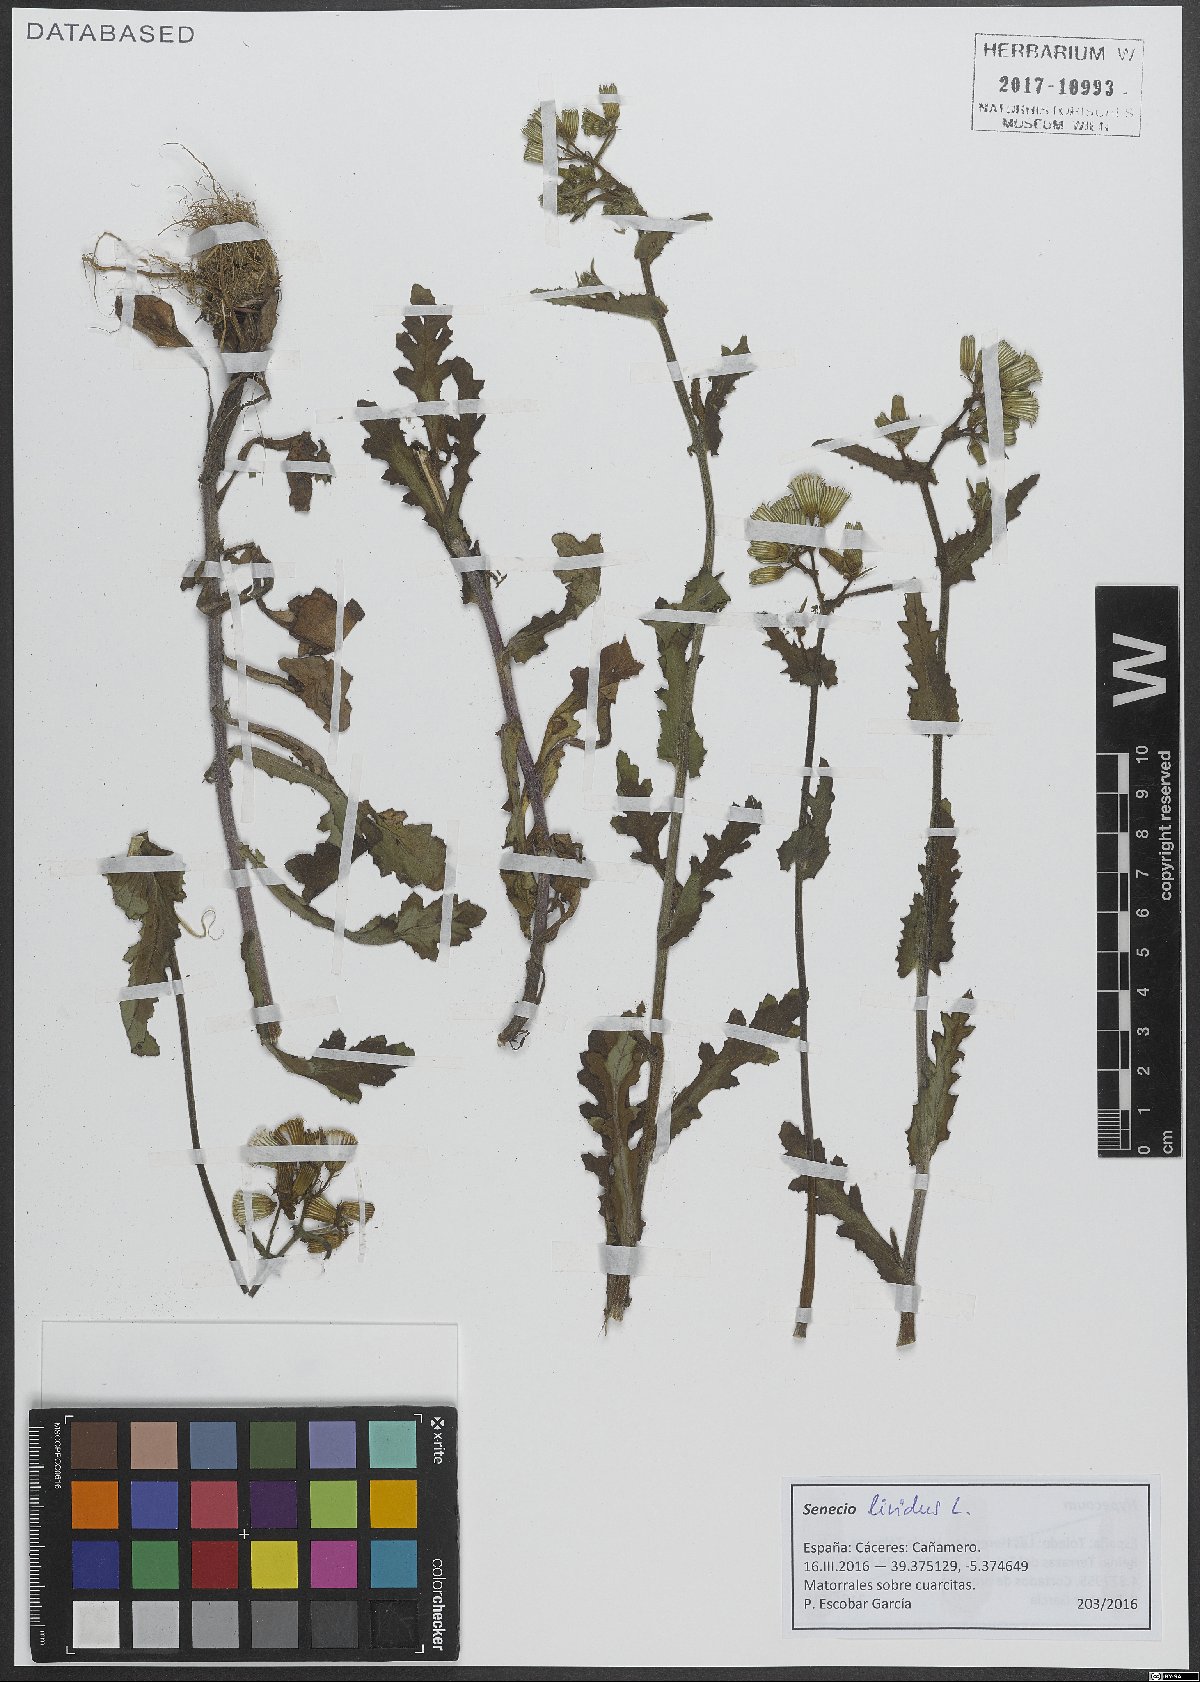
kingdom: Plantae
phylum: Tracheophyta
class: Magnoliopsida
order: Asterales
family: Asteraceae
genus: Senecio
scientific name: Senecio lividus
